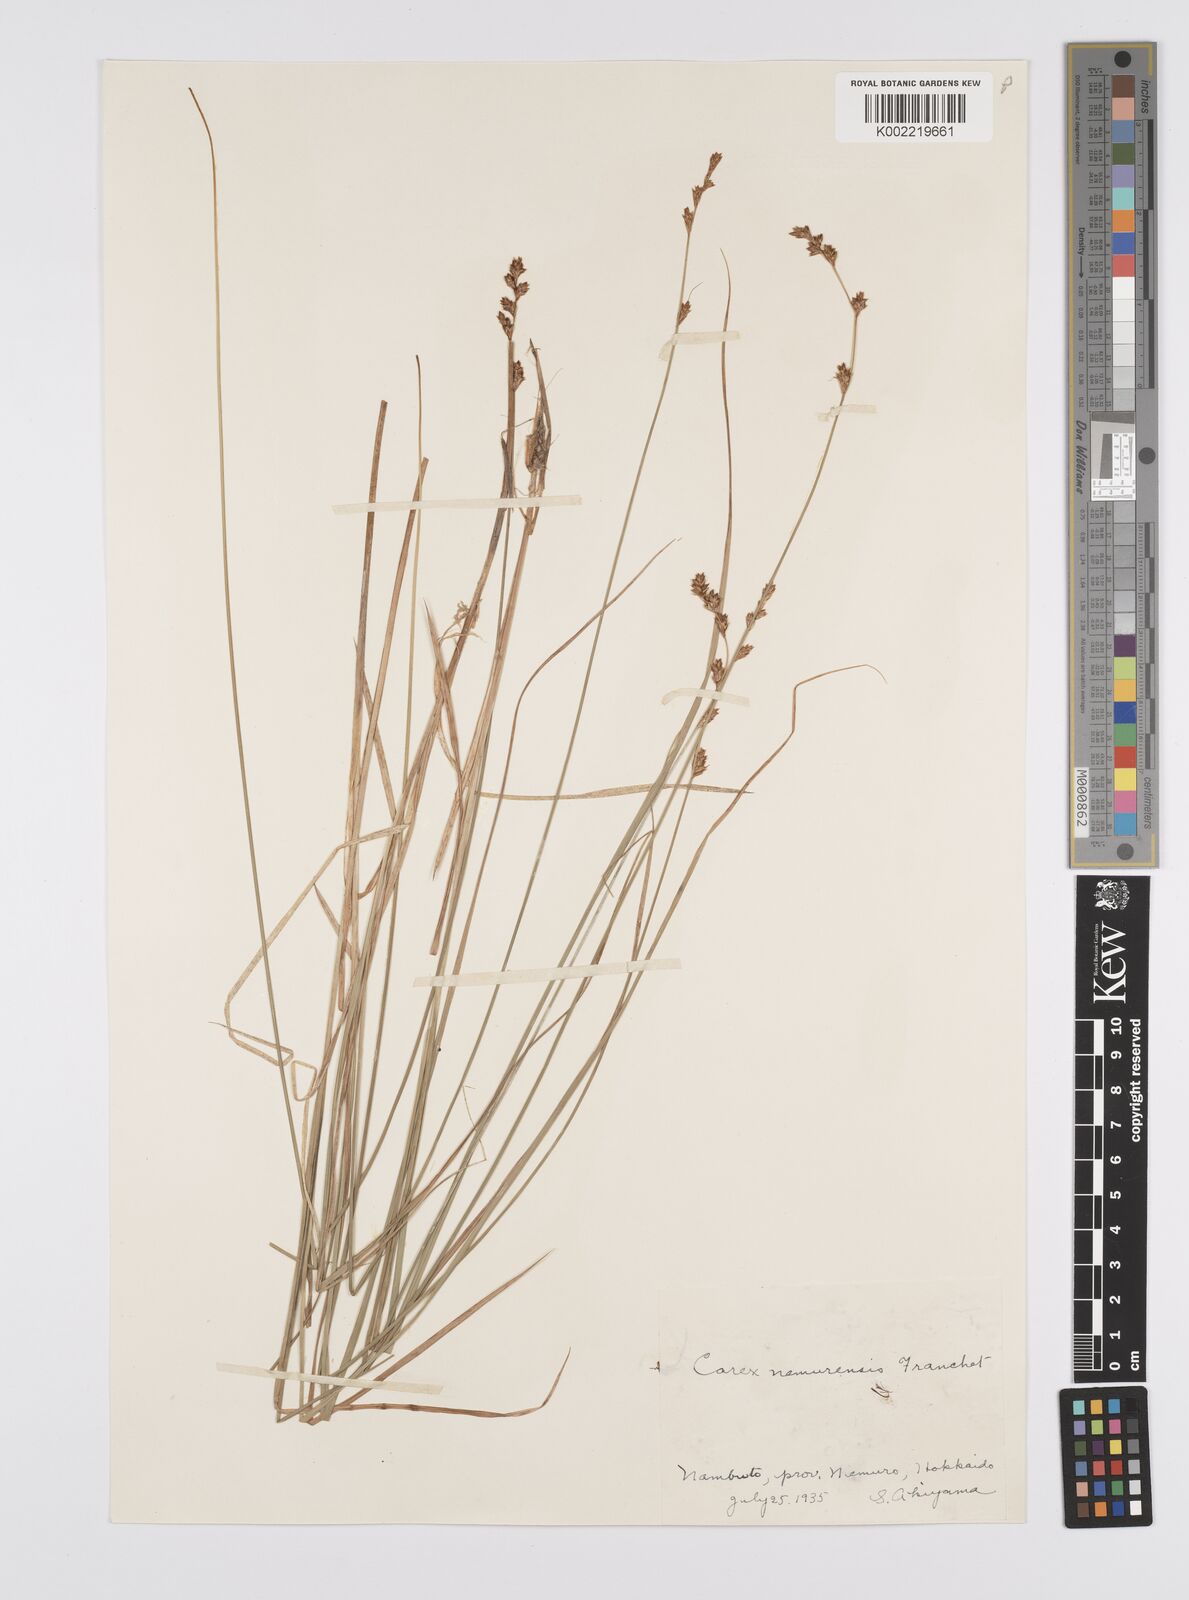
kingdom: Plantae
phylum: Tracheophyta
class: Liliopsida
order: Poales
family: Cyperaceae
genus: Carex
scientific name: Carex traiziscana
